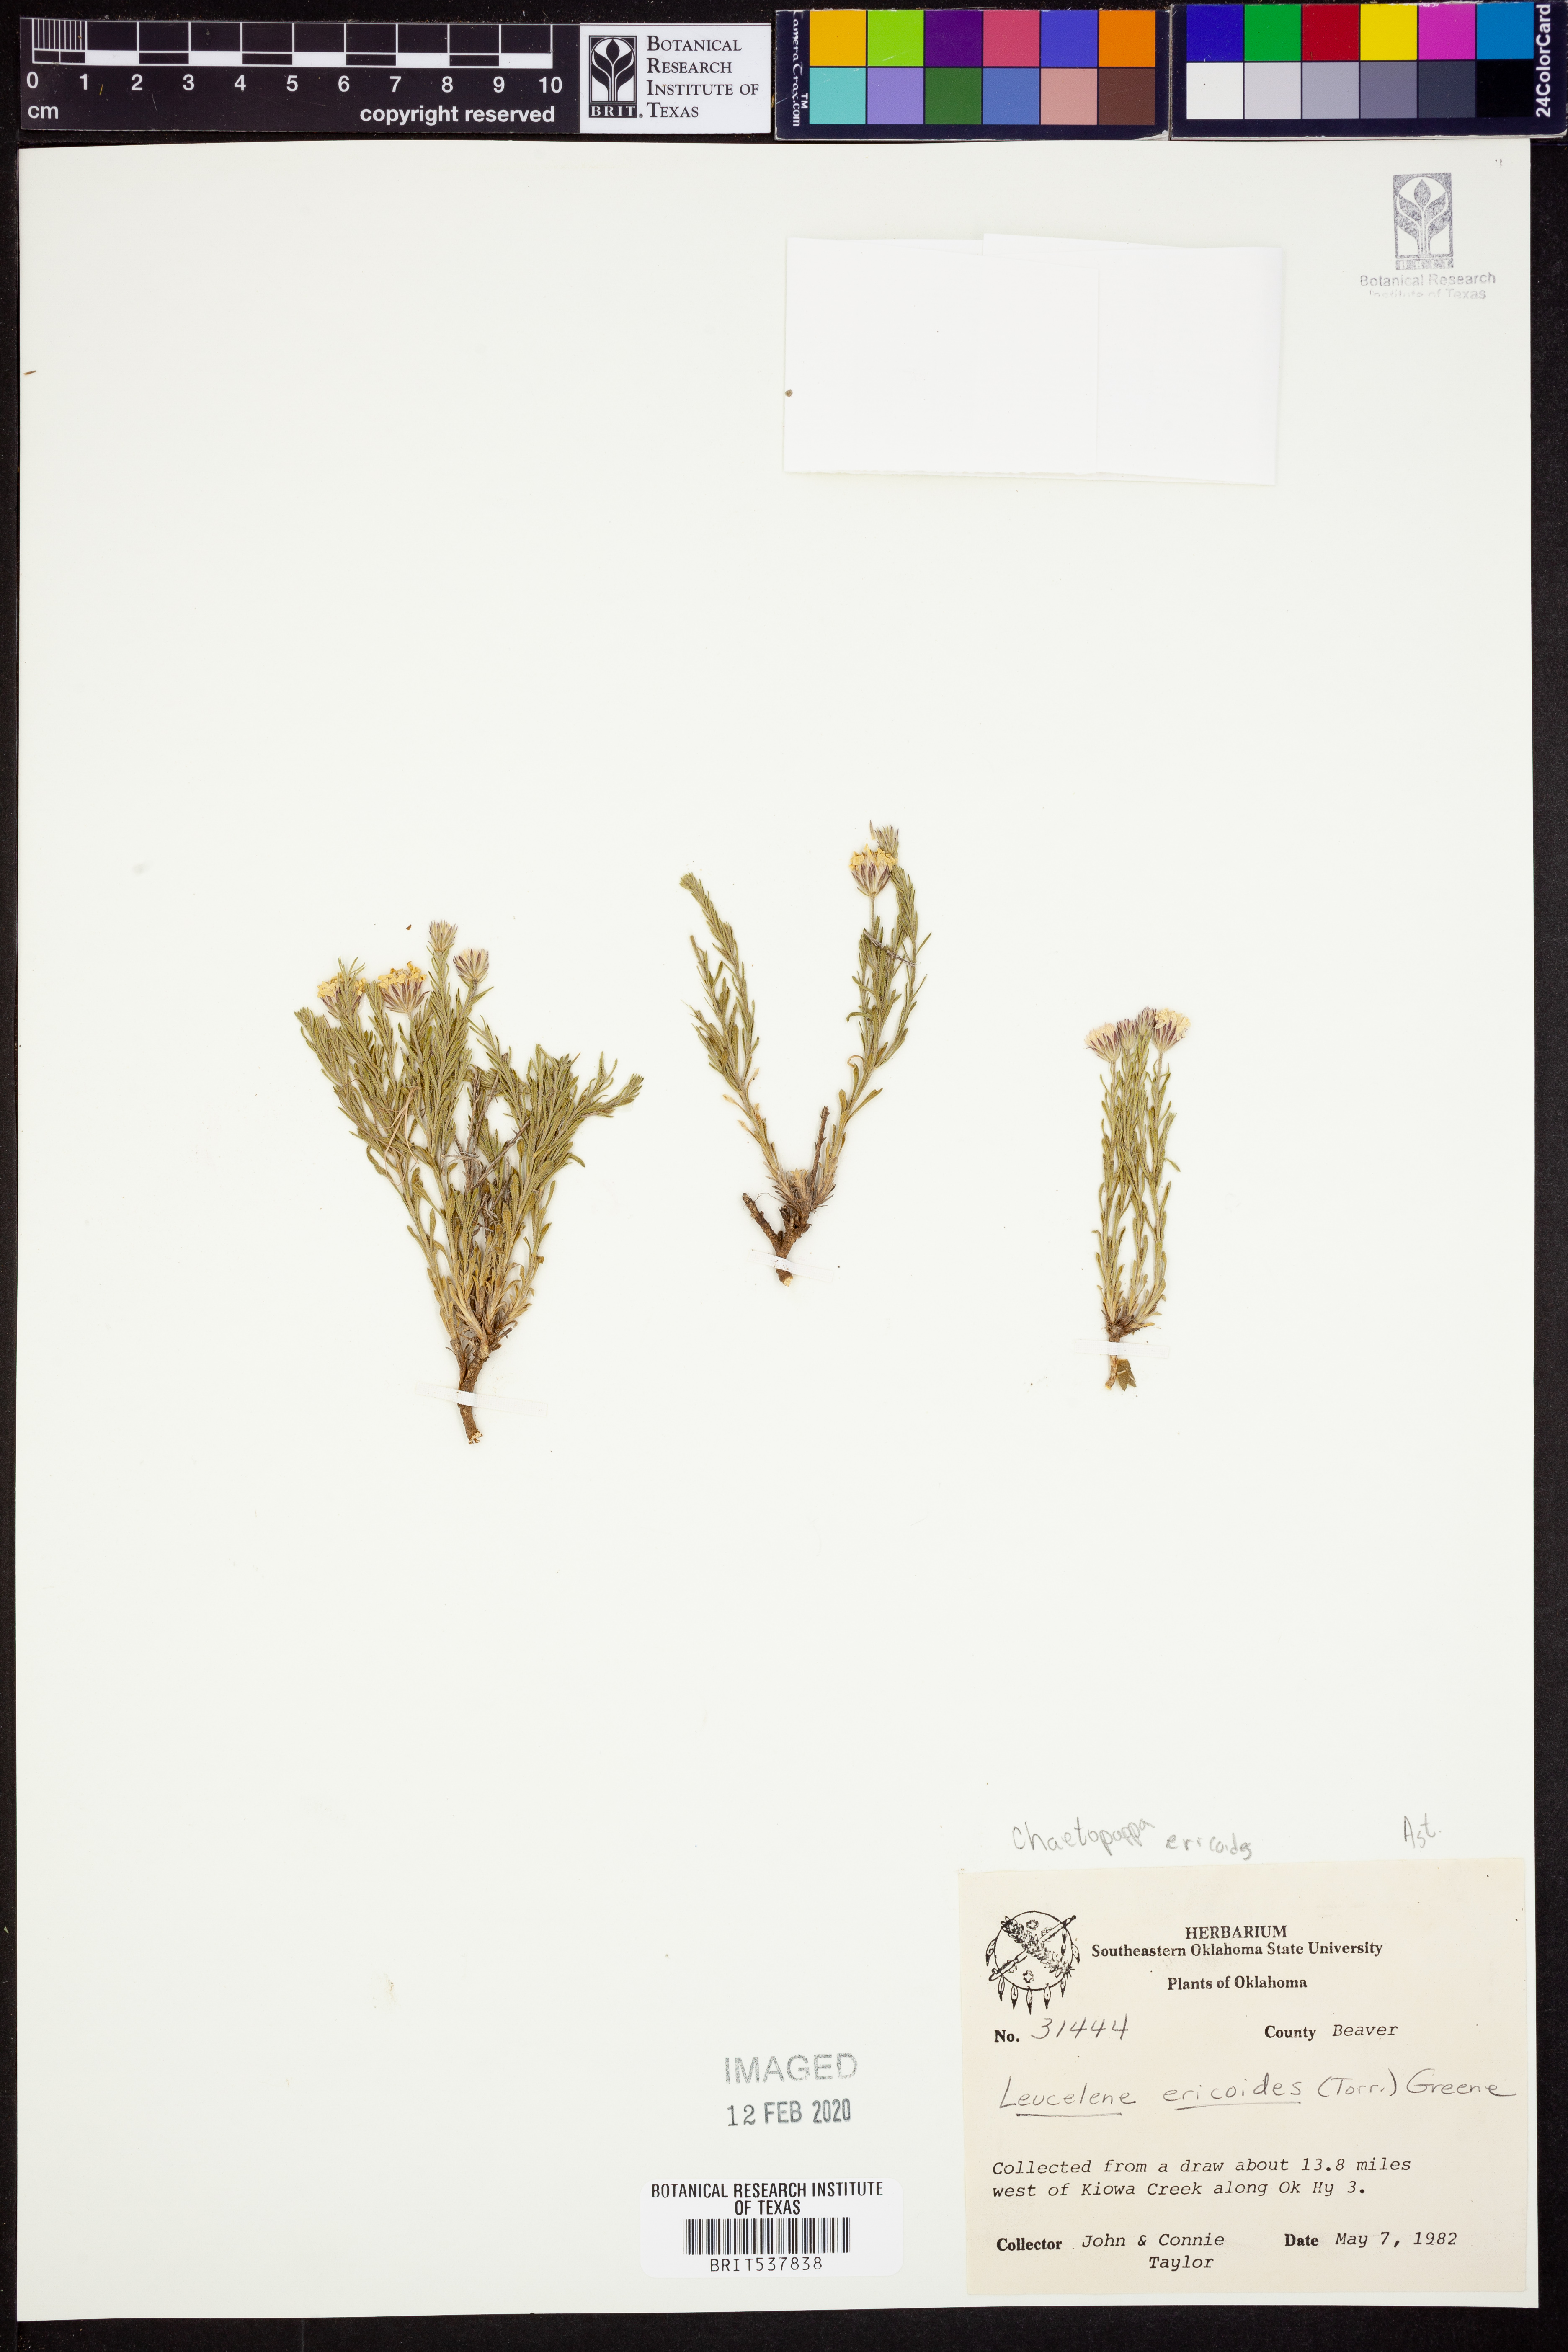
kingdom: Plantae
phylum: Tracheophyta
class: Magnoliopsida
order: Asterales
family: Asteraceae
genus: Chaetopappa
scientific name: Chaetopappa ericoides
